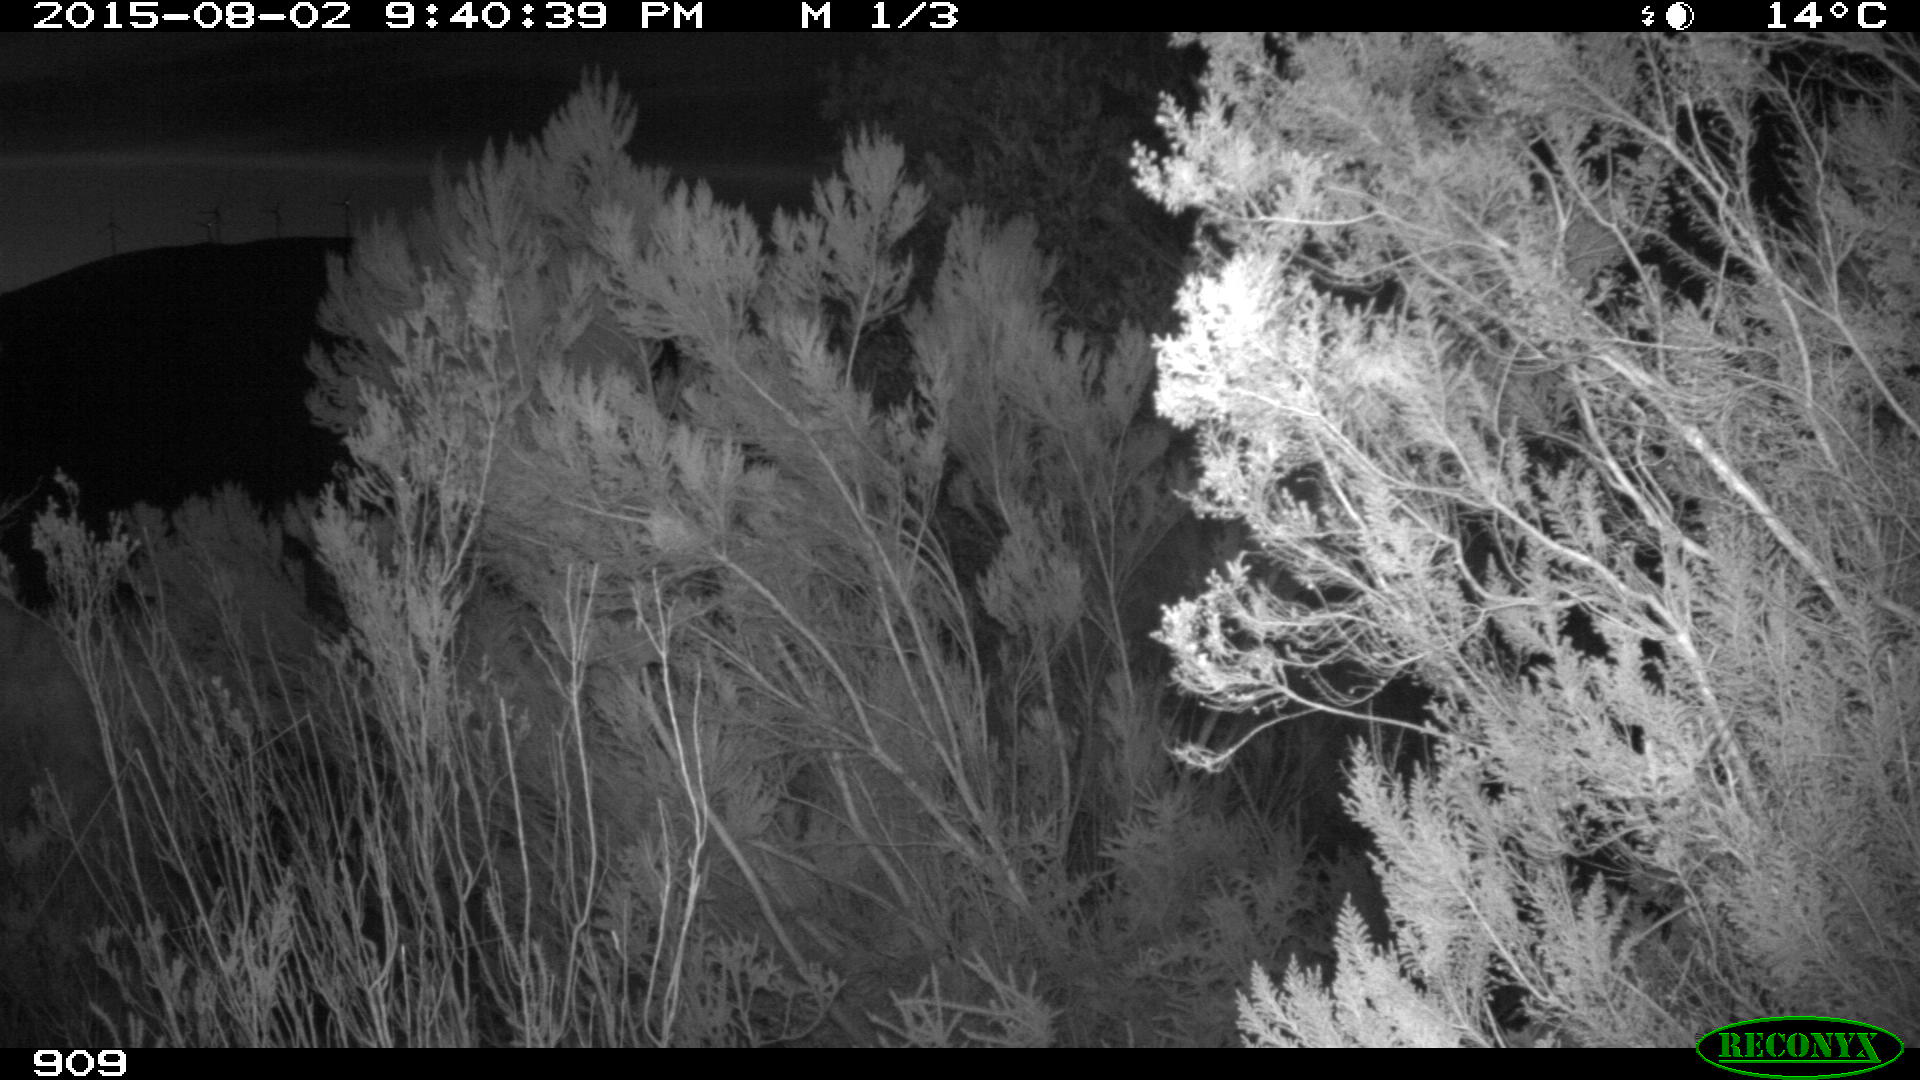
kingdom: Animalia
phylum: Chordata
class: Mammalia
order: Artiodactyla
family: Cervidae
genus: Capreolus
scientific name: Capreolus capreolus
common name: Western roe deer
